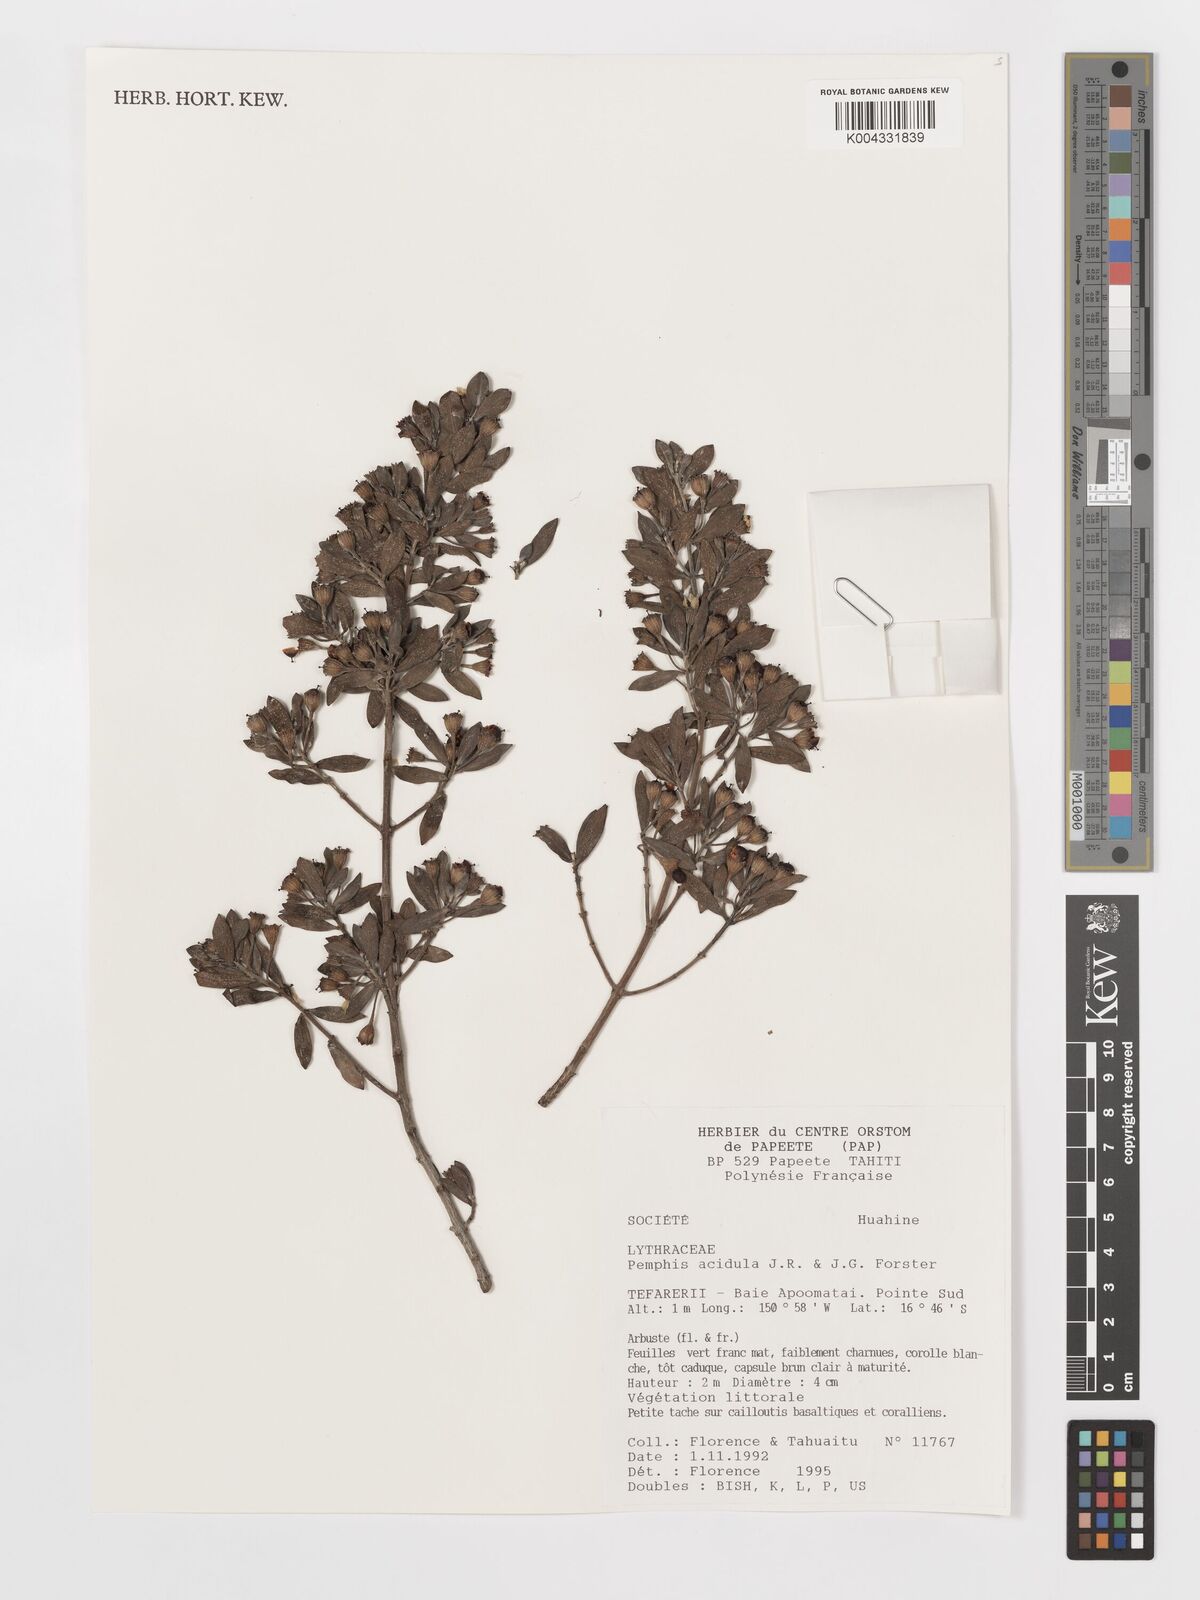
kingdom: Plantae
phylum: Tracheophyta
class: Magnoliopsida
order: Myrtales
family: Lythraceae
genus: Pemphis
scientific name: Pemphis acidula
